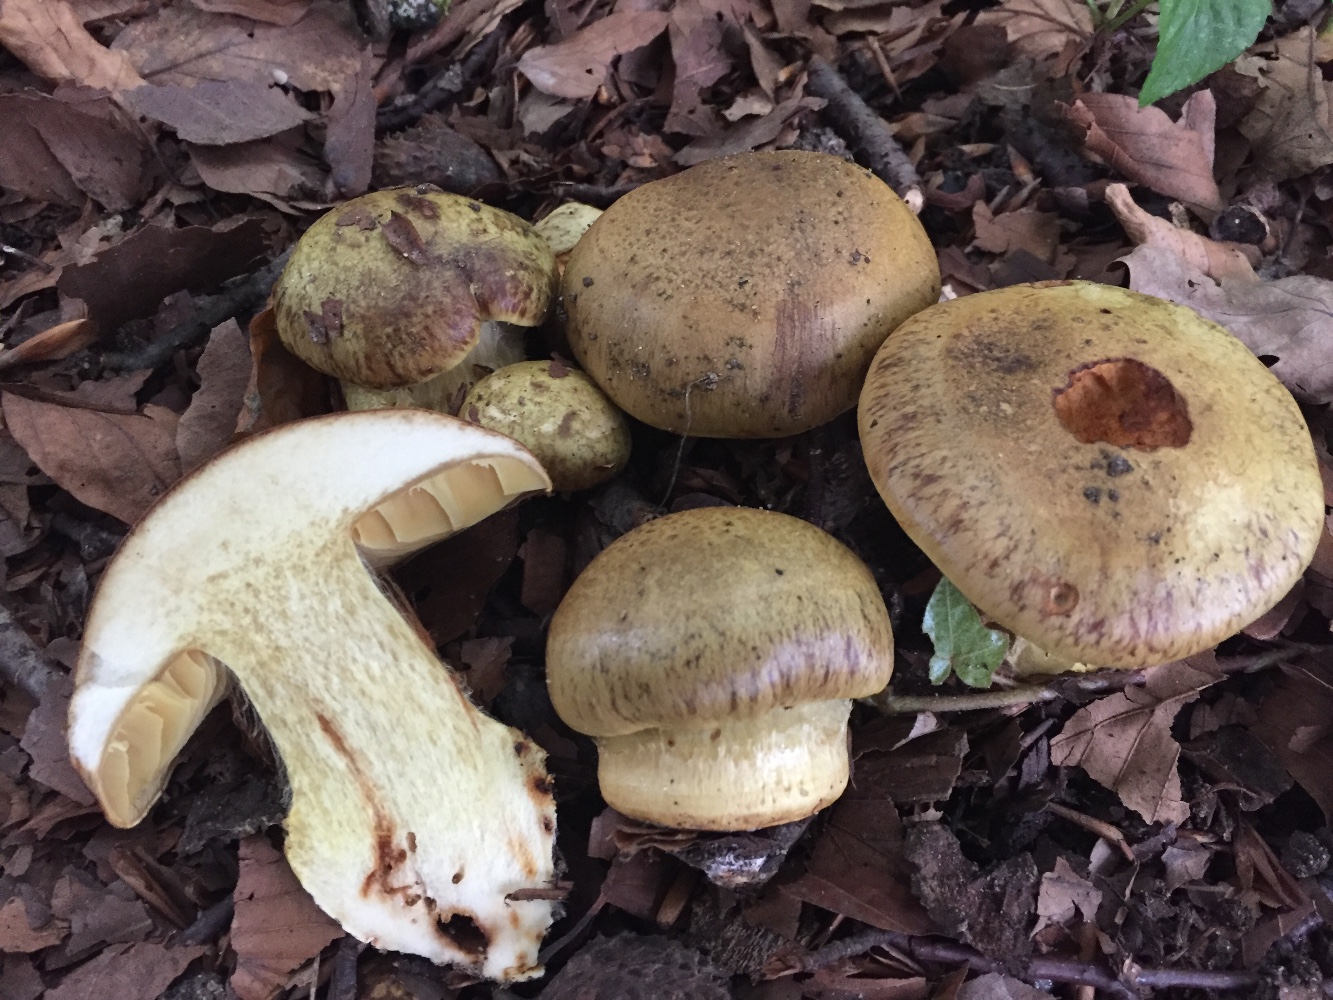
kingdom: Fungi
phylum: Basidiomycota
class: Agaricomycetes
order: Agaricales
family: Cortinariaceae
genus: Calonarius
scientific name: Calonarius xanthochlorus
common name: gulgrøn slørhat
